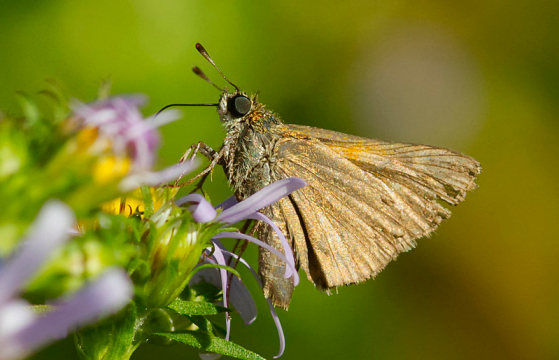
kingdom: Animalia
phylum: Arthropoda
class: Insecta
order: Lepidoptera
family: Hesperiidae
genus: Polites
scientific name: Polites themistocles
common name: Tawny-edged Skipper
